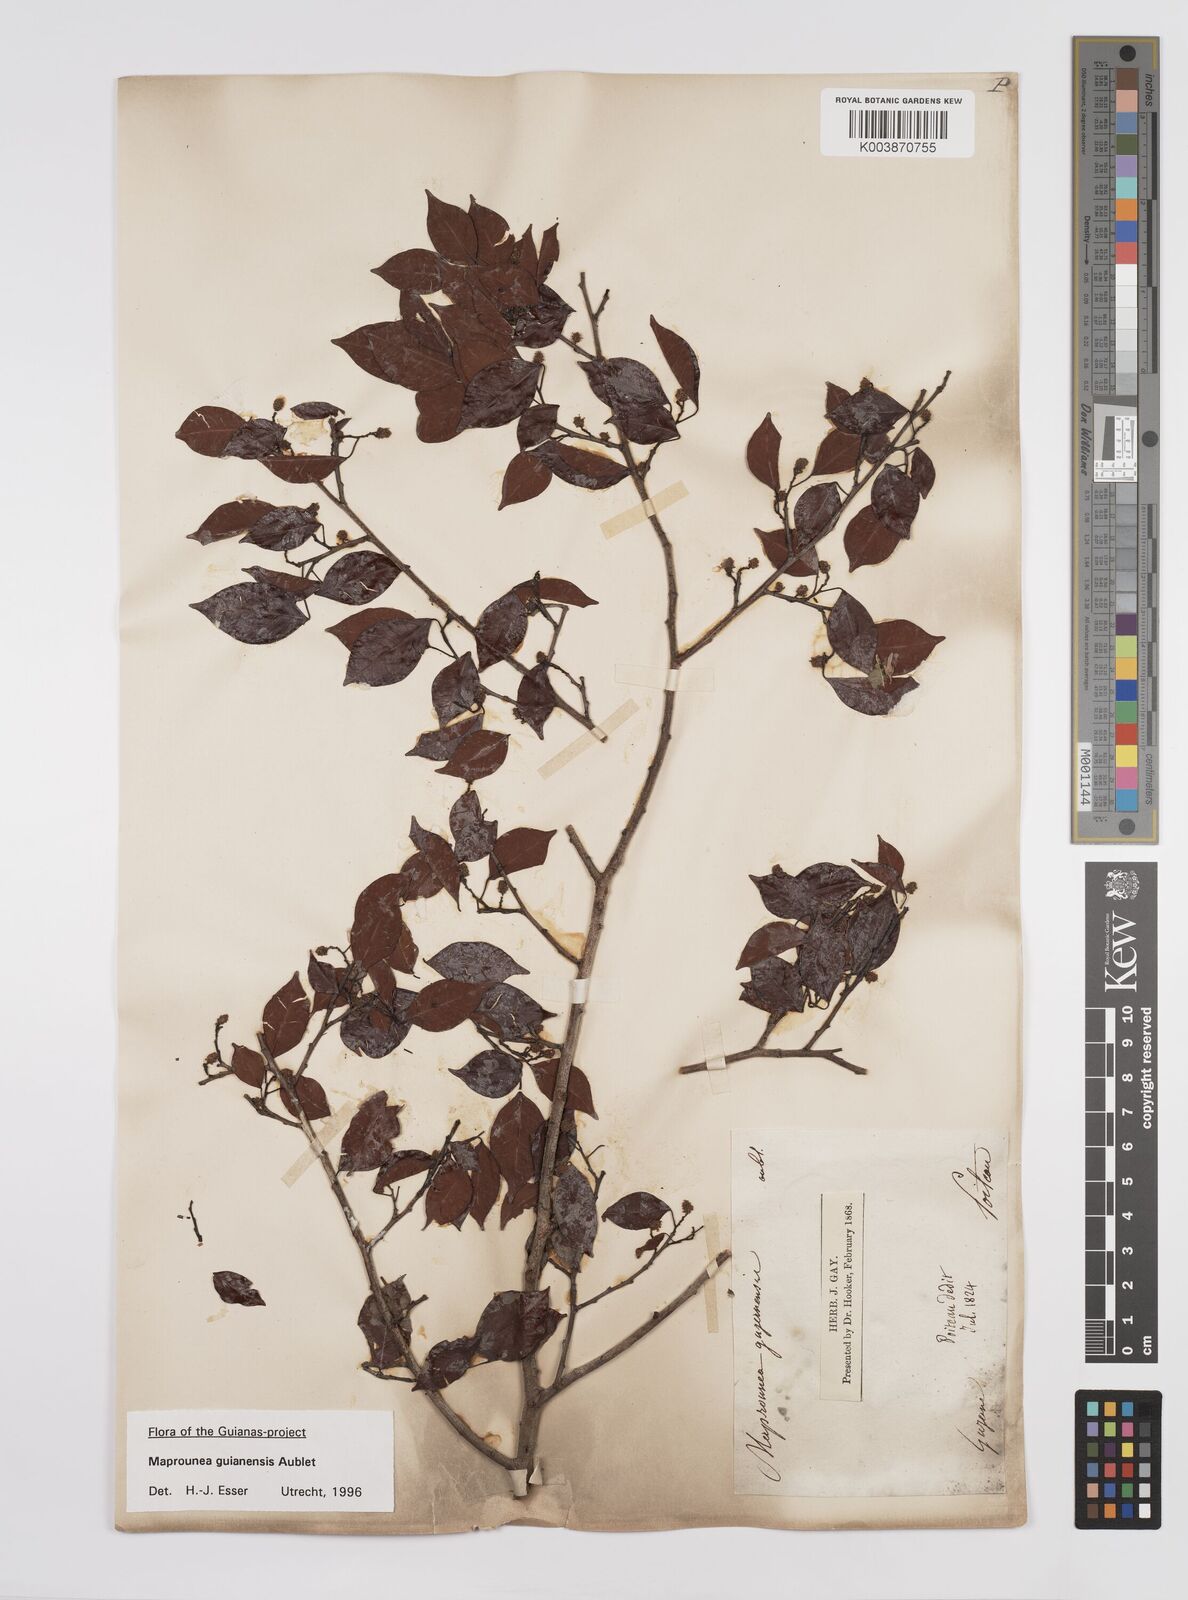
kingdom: Plantae
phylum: Tracheophyta
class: Magnoliopsida
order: Malpighiales
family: Euphorbiaceae
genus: Maprounea
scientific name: Maprounea guianensis
